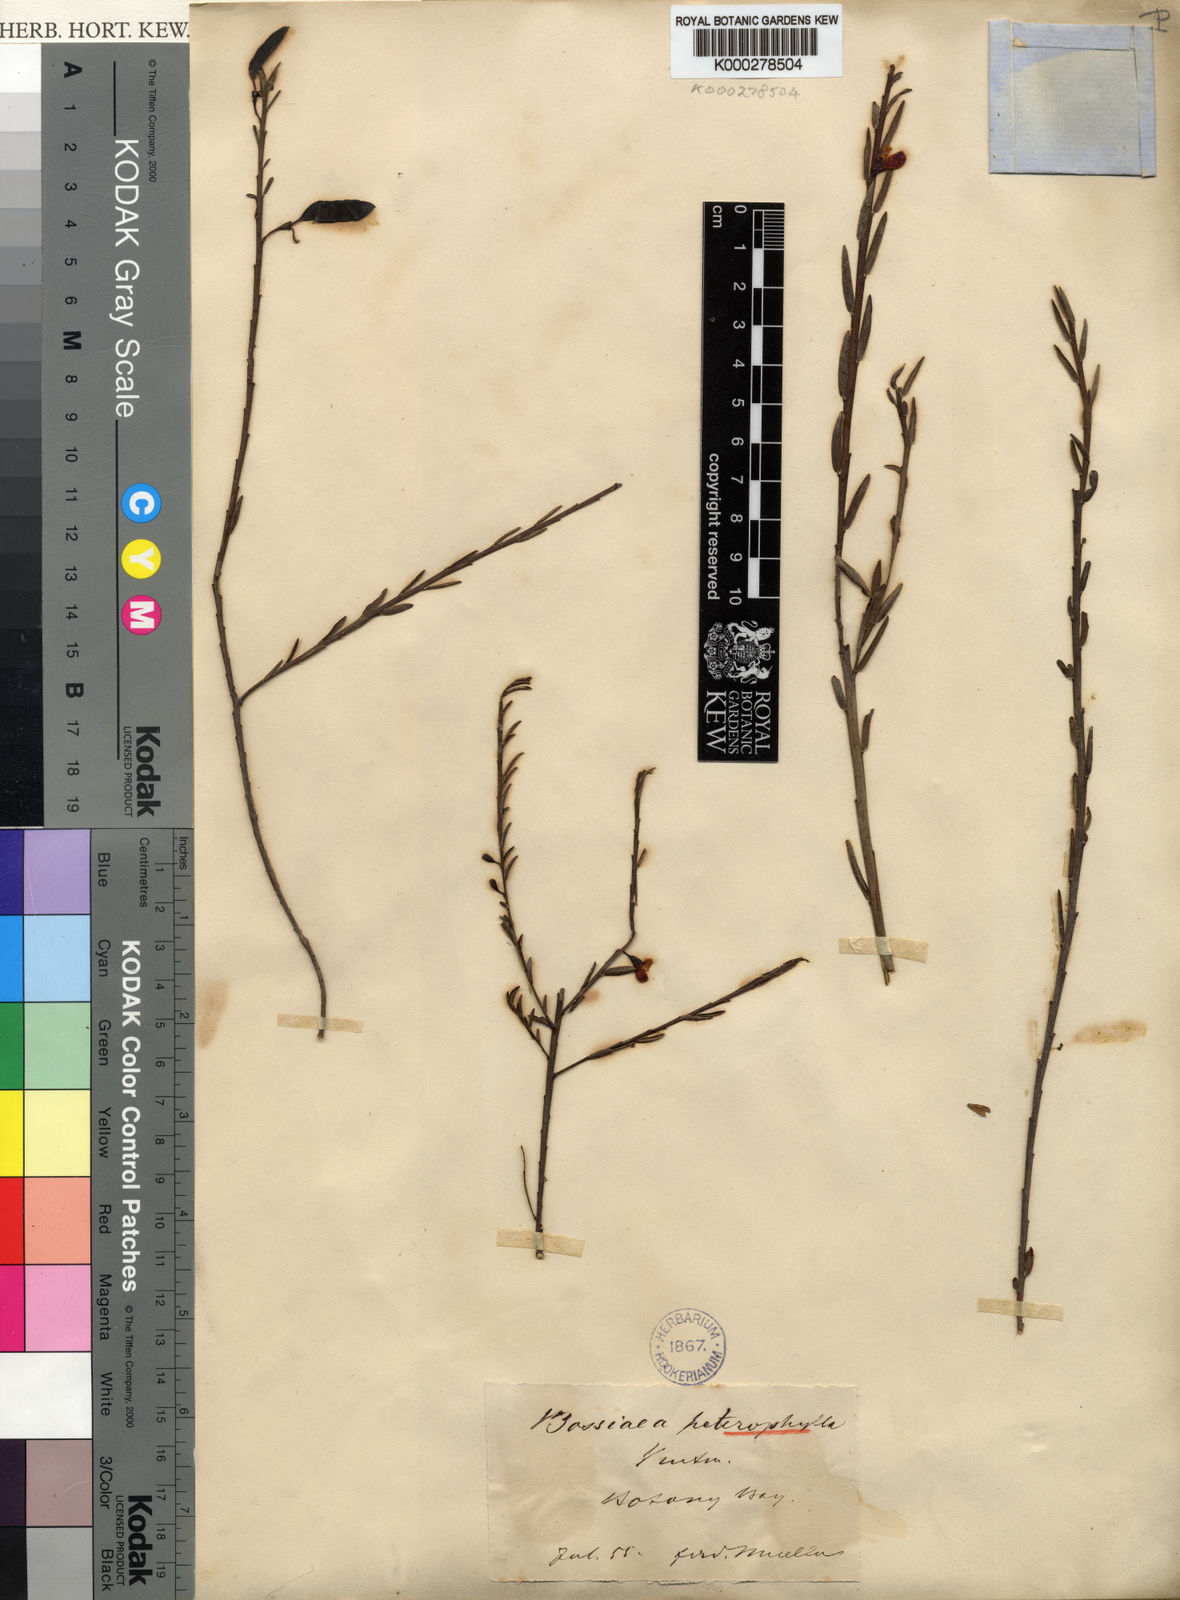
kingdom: Plantae
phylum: Tracheophyta
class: Magnoliopsida
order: Fabales
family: Fabaceae
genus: Bossiaea
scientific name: Bossiaea heterophylla
